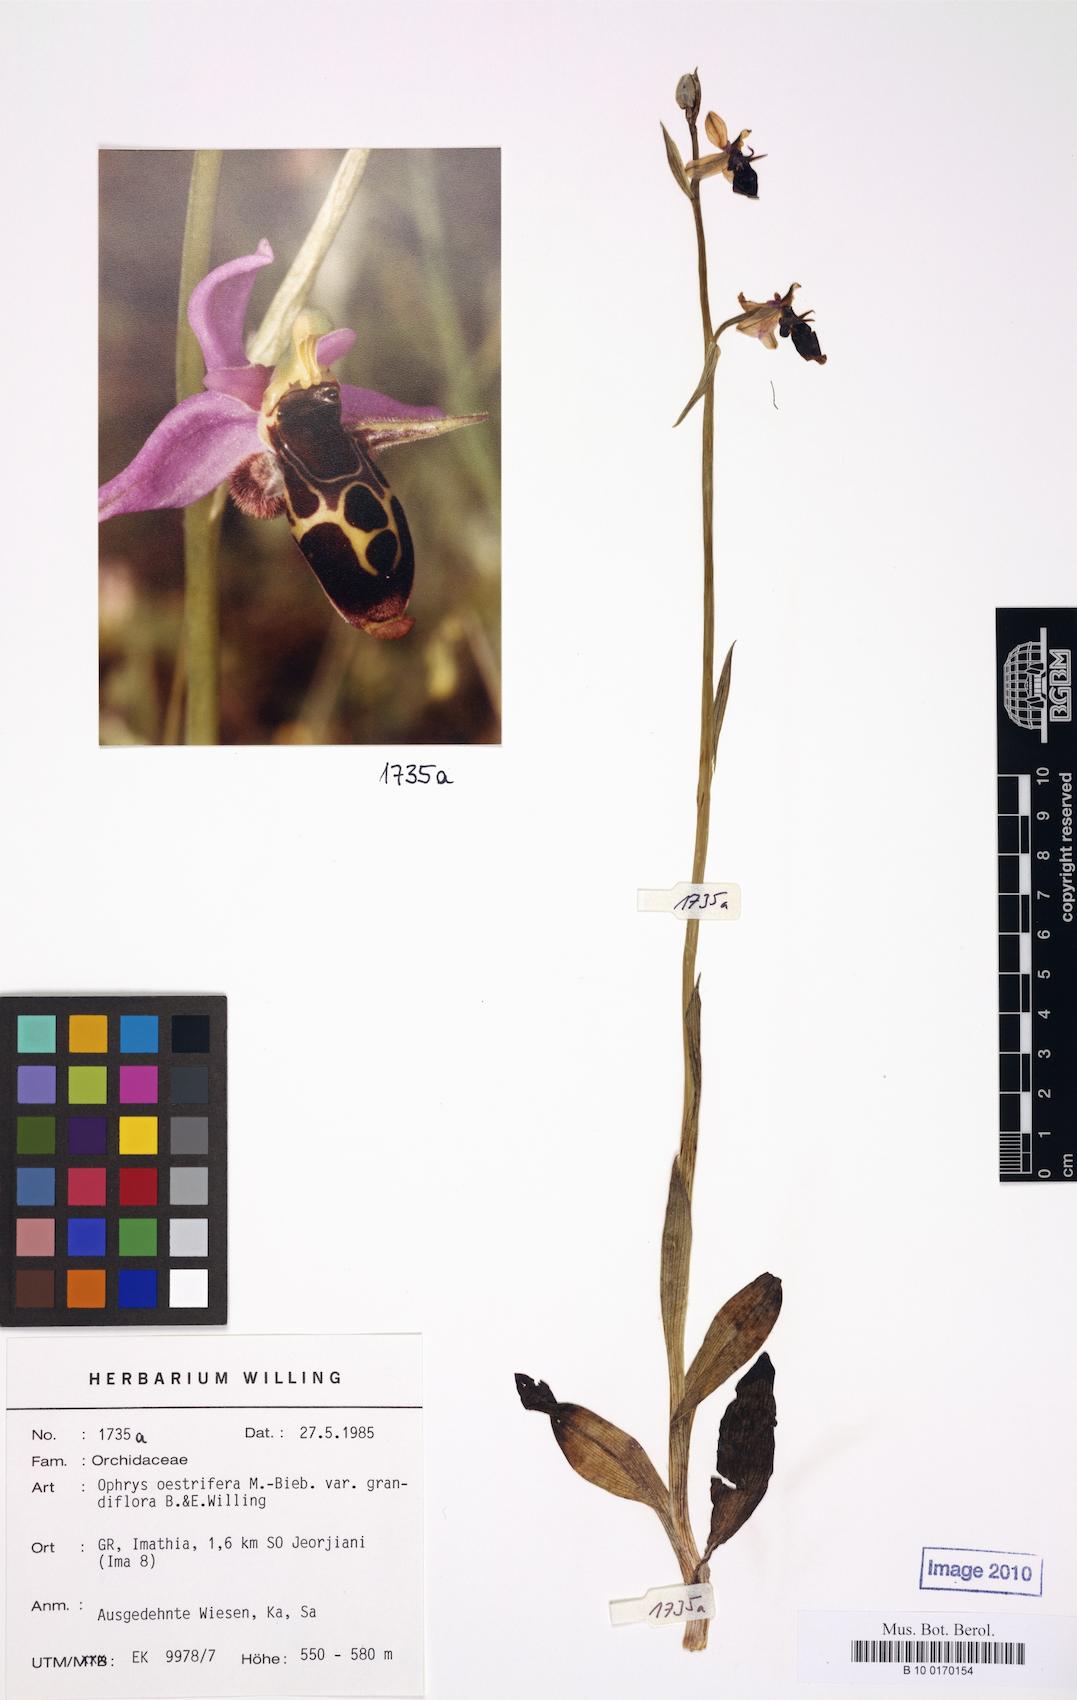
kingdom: Plantae
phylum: Tracheophyta
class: Liliopsida
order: Asparagales
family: Orchidaceae
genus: Ophrys
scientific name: Ophrys scolopax
